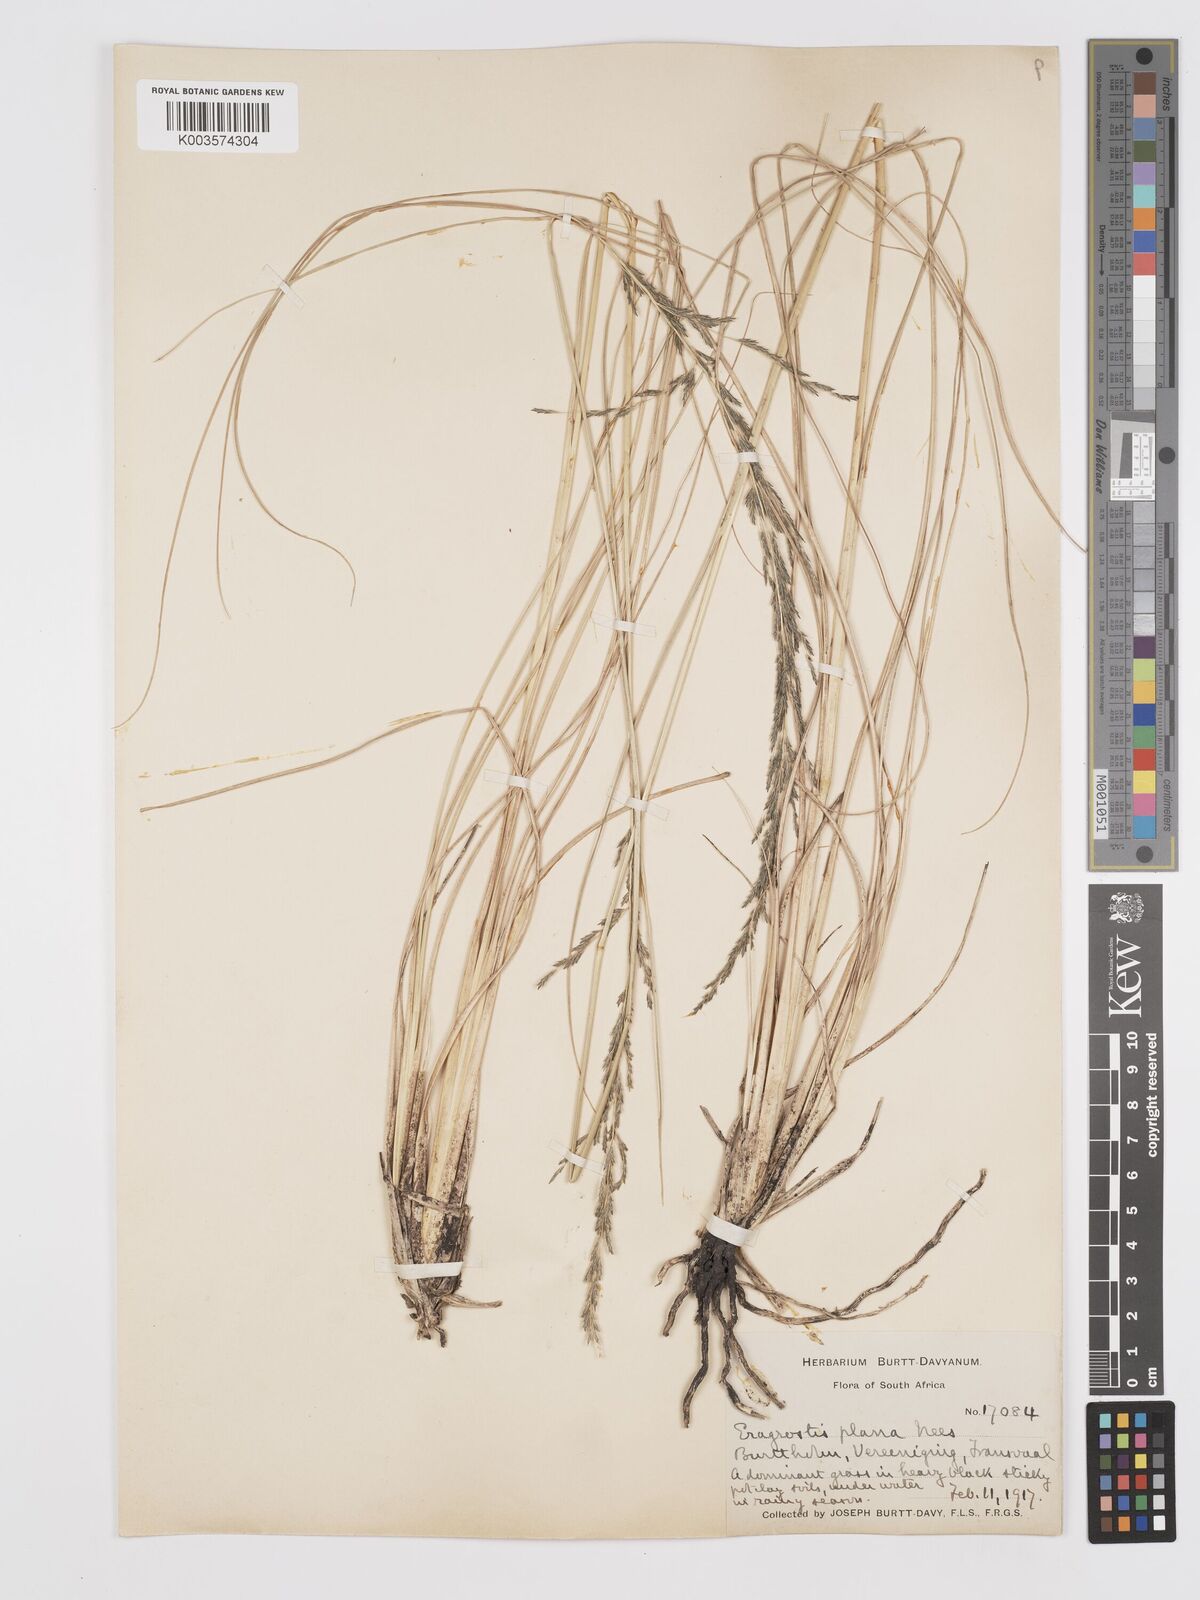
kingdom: Plantae
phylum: Tracheophyta
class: Liliopsida
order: Poales
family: Poaceae
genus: Eragrostis
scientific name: Eragrostis plana
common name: South african lovegrass
